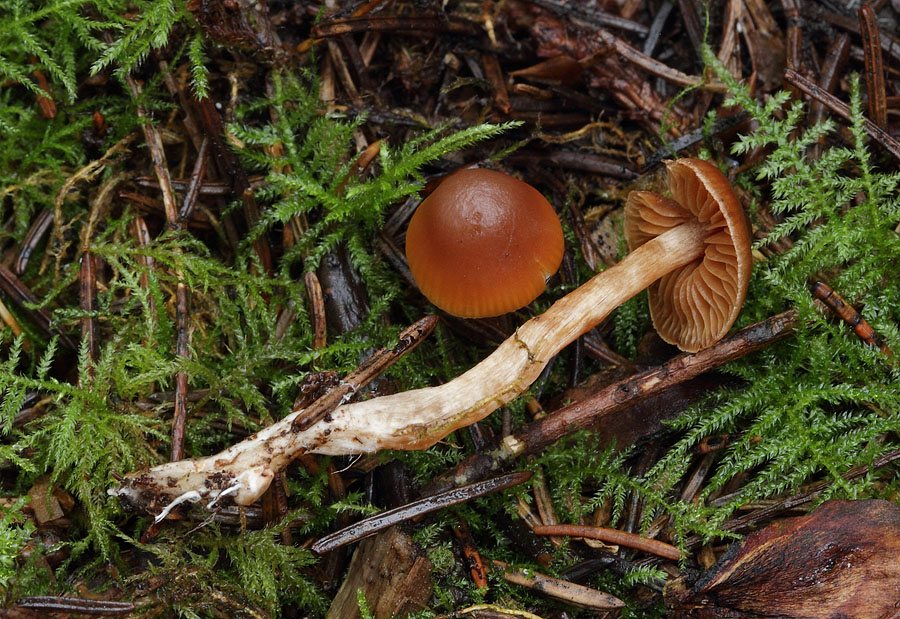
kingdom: Fungi
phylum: Basidiomycota
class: Agaricomycetes
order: Agaricales
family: Cortinariaceae
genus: Cortinarius
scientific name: Cortinarius
